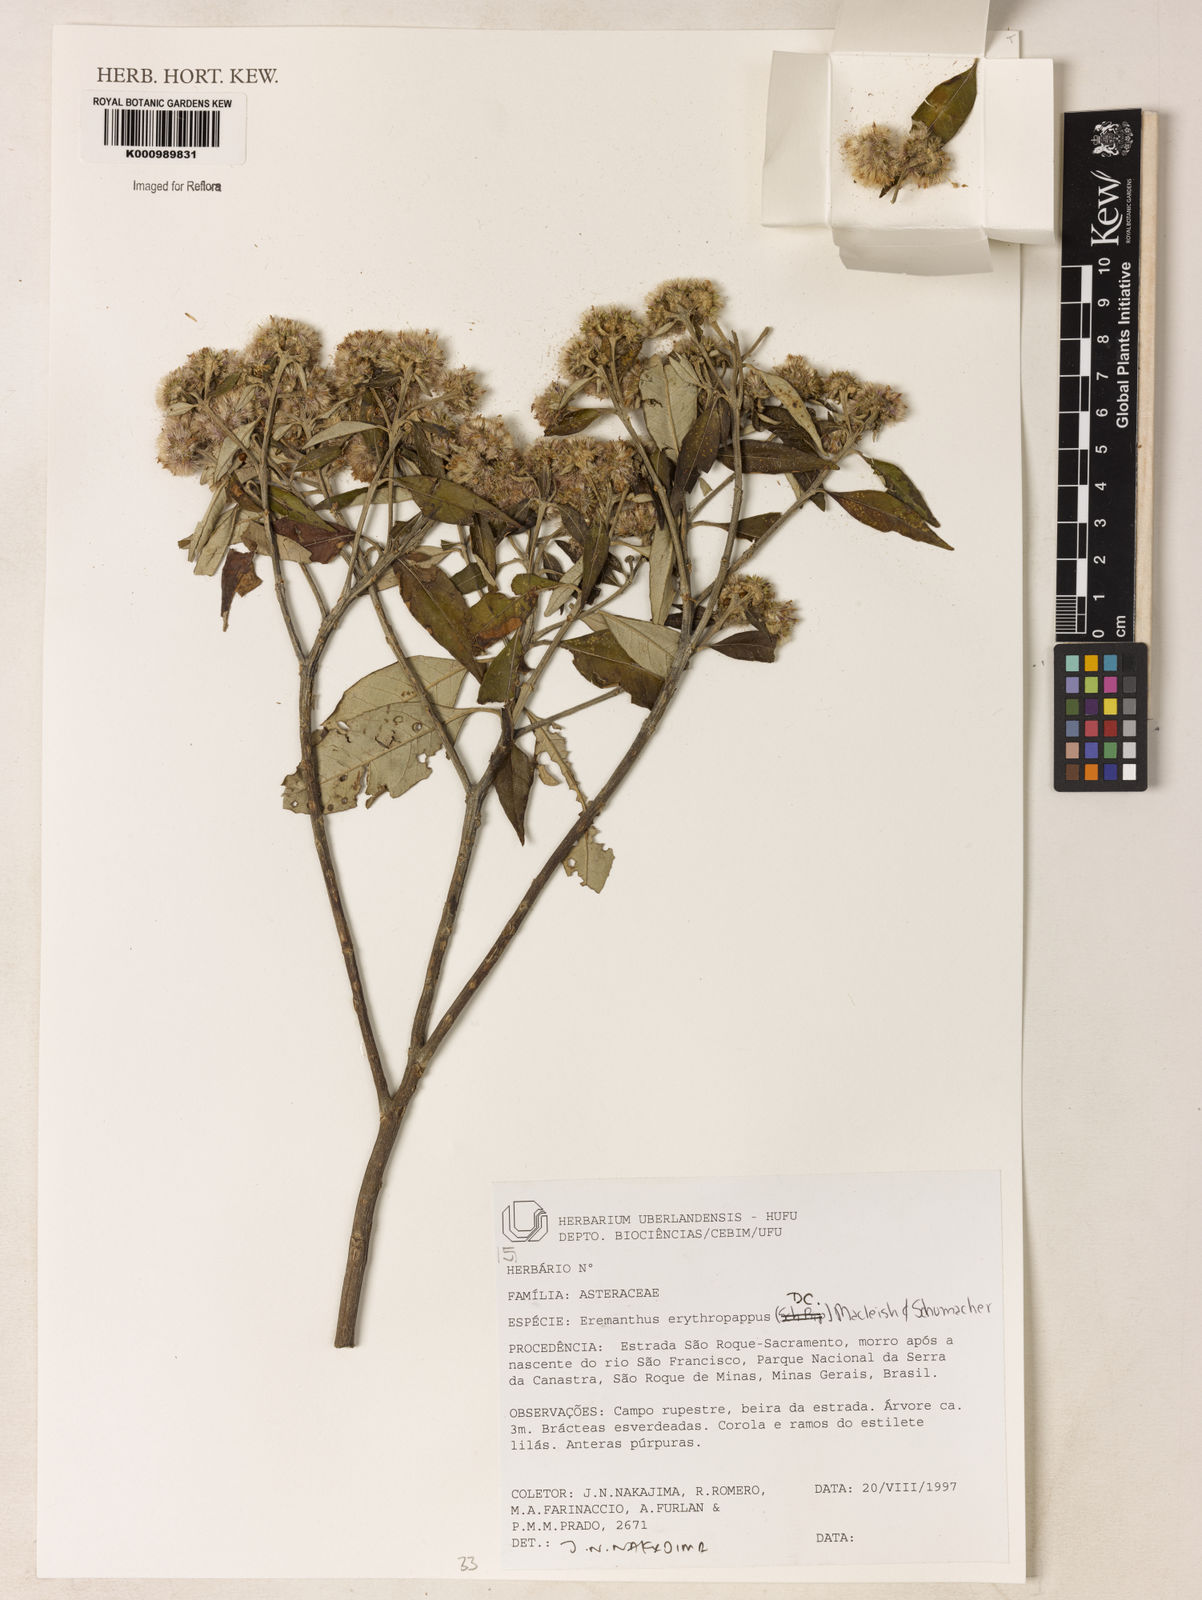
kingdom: Plantae
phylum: Tracheophyta
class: Magnoliopsida
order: Asterales
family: Asteraceae
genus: Eremanthus
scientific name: Eremanthus erythropappus
